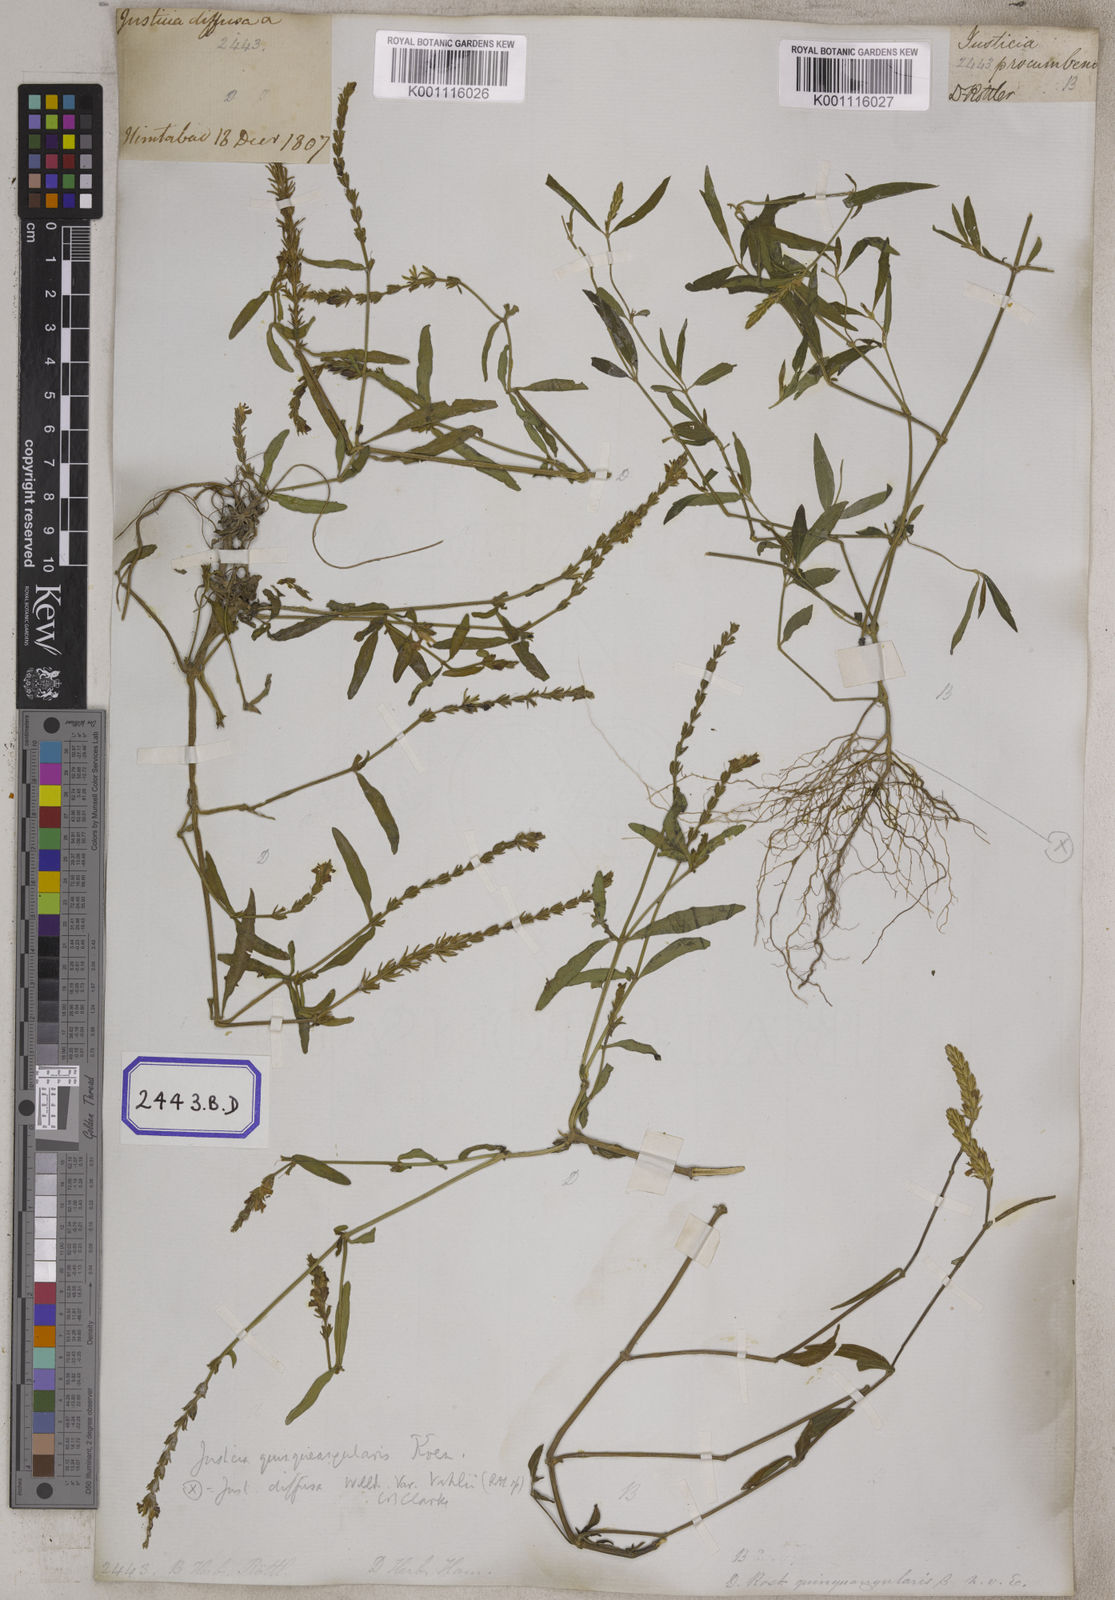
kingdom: Plantae
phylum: Tracheophyta
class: Magnoliopsida
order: Lamiales
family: Acanthaceae
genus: Rostellularia
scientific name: Rostellularia diffusa
